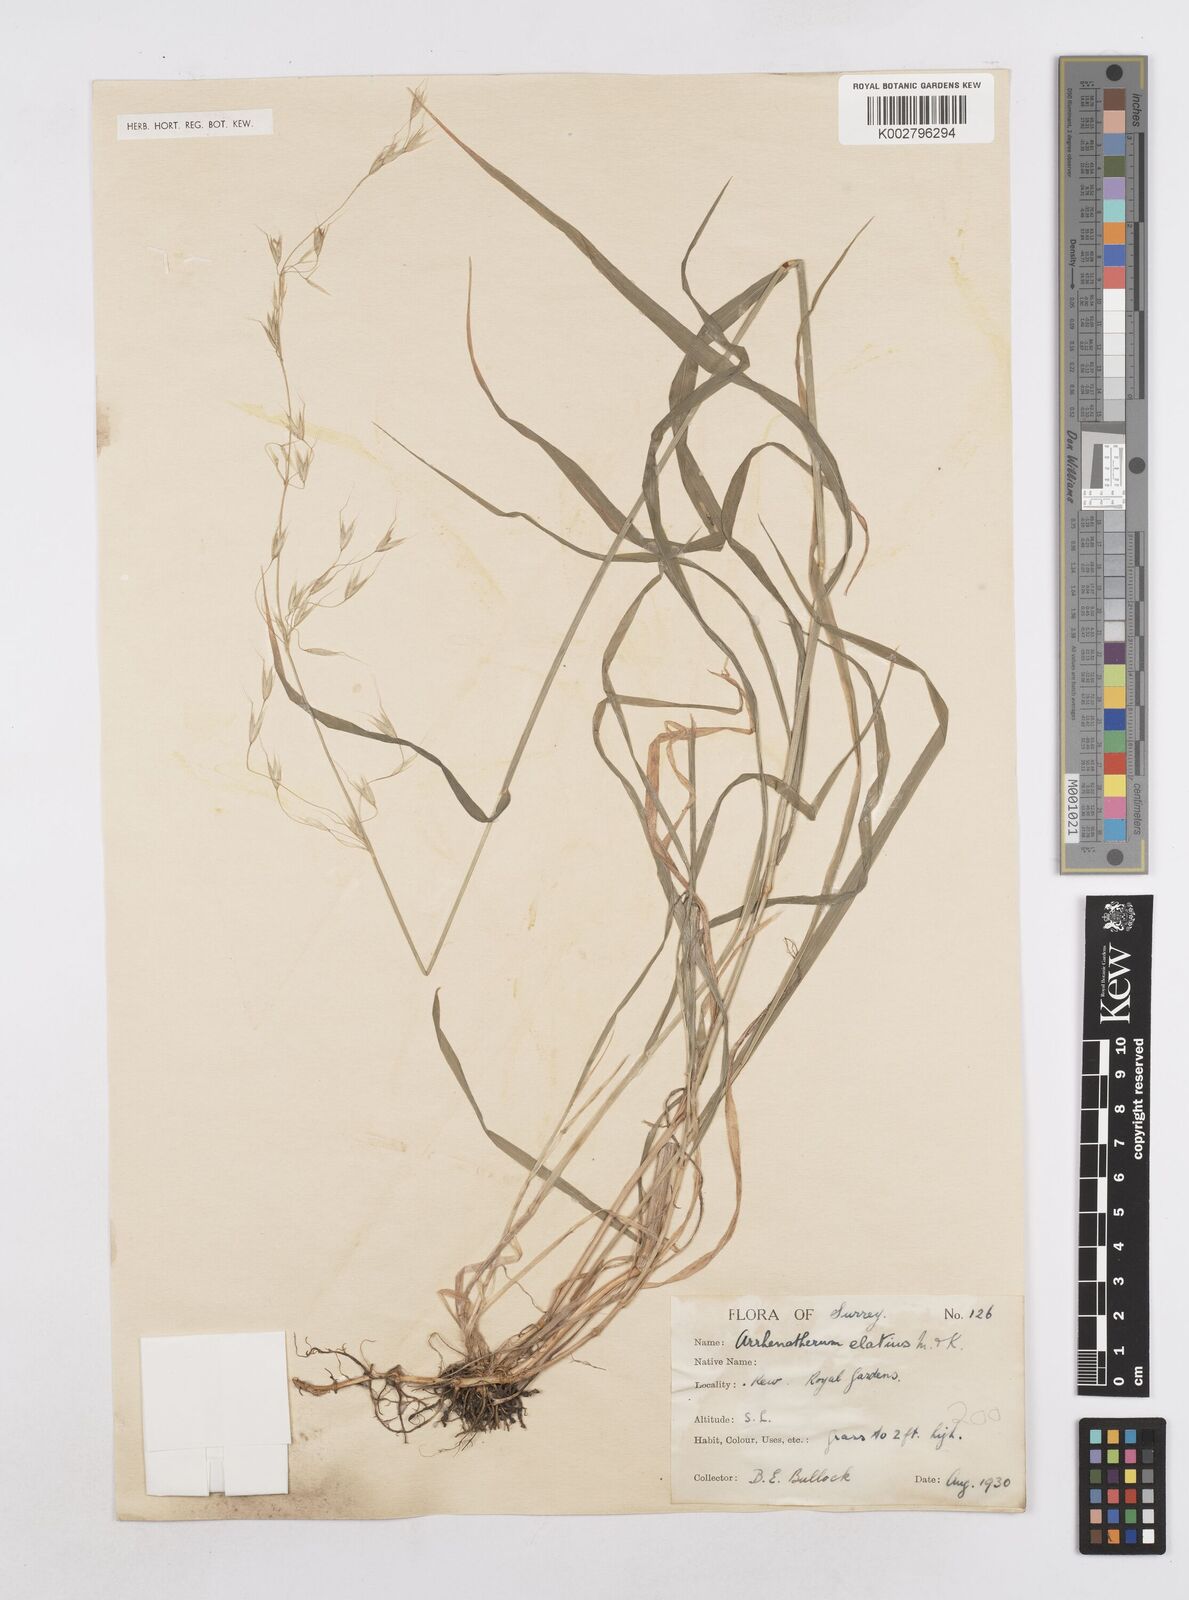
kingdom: Plantae
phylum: Tracheophyta
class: Liliopsida
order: Poales
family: Poaceae
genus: Arrhenatherum
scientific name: Arrhenatherum elatius
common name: Tall oatgrass
